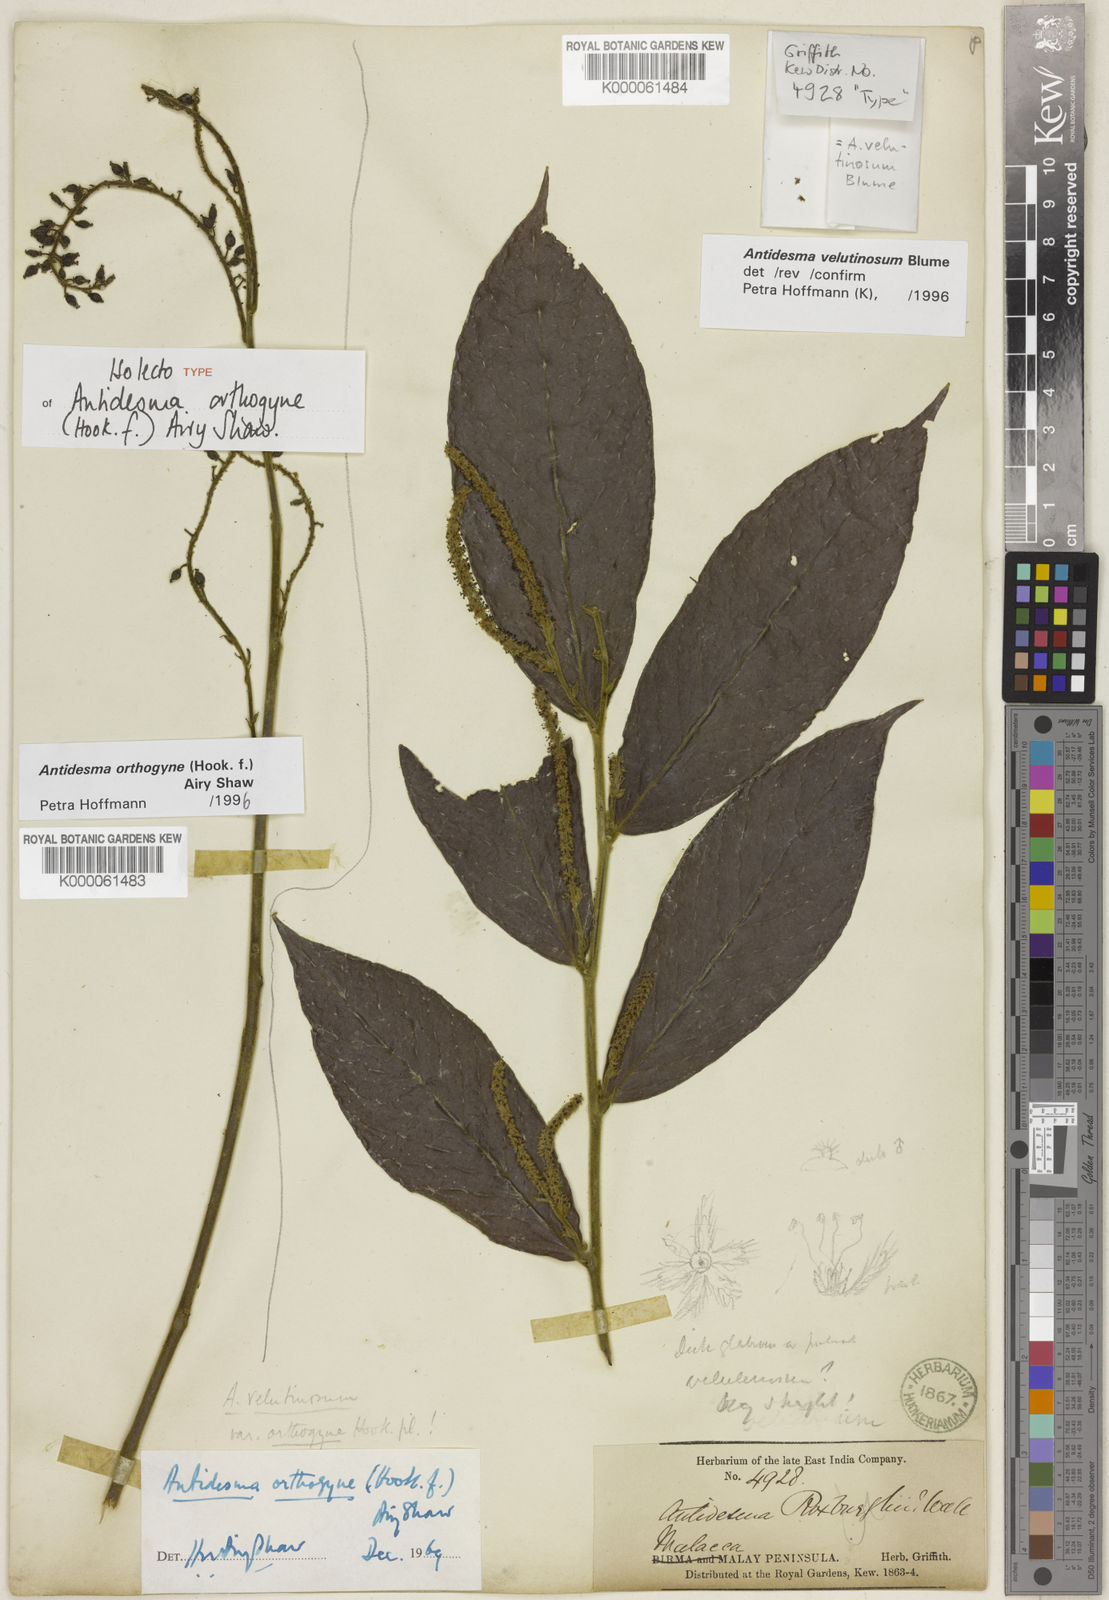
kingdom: Plantae
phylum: Tracheophyta
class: Magnoliopsida
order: Malpighiales
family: Phyllanthaceae
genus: Antidesma
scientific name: Antidesma orthogyne
